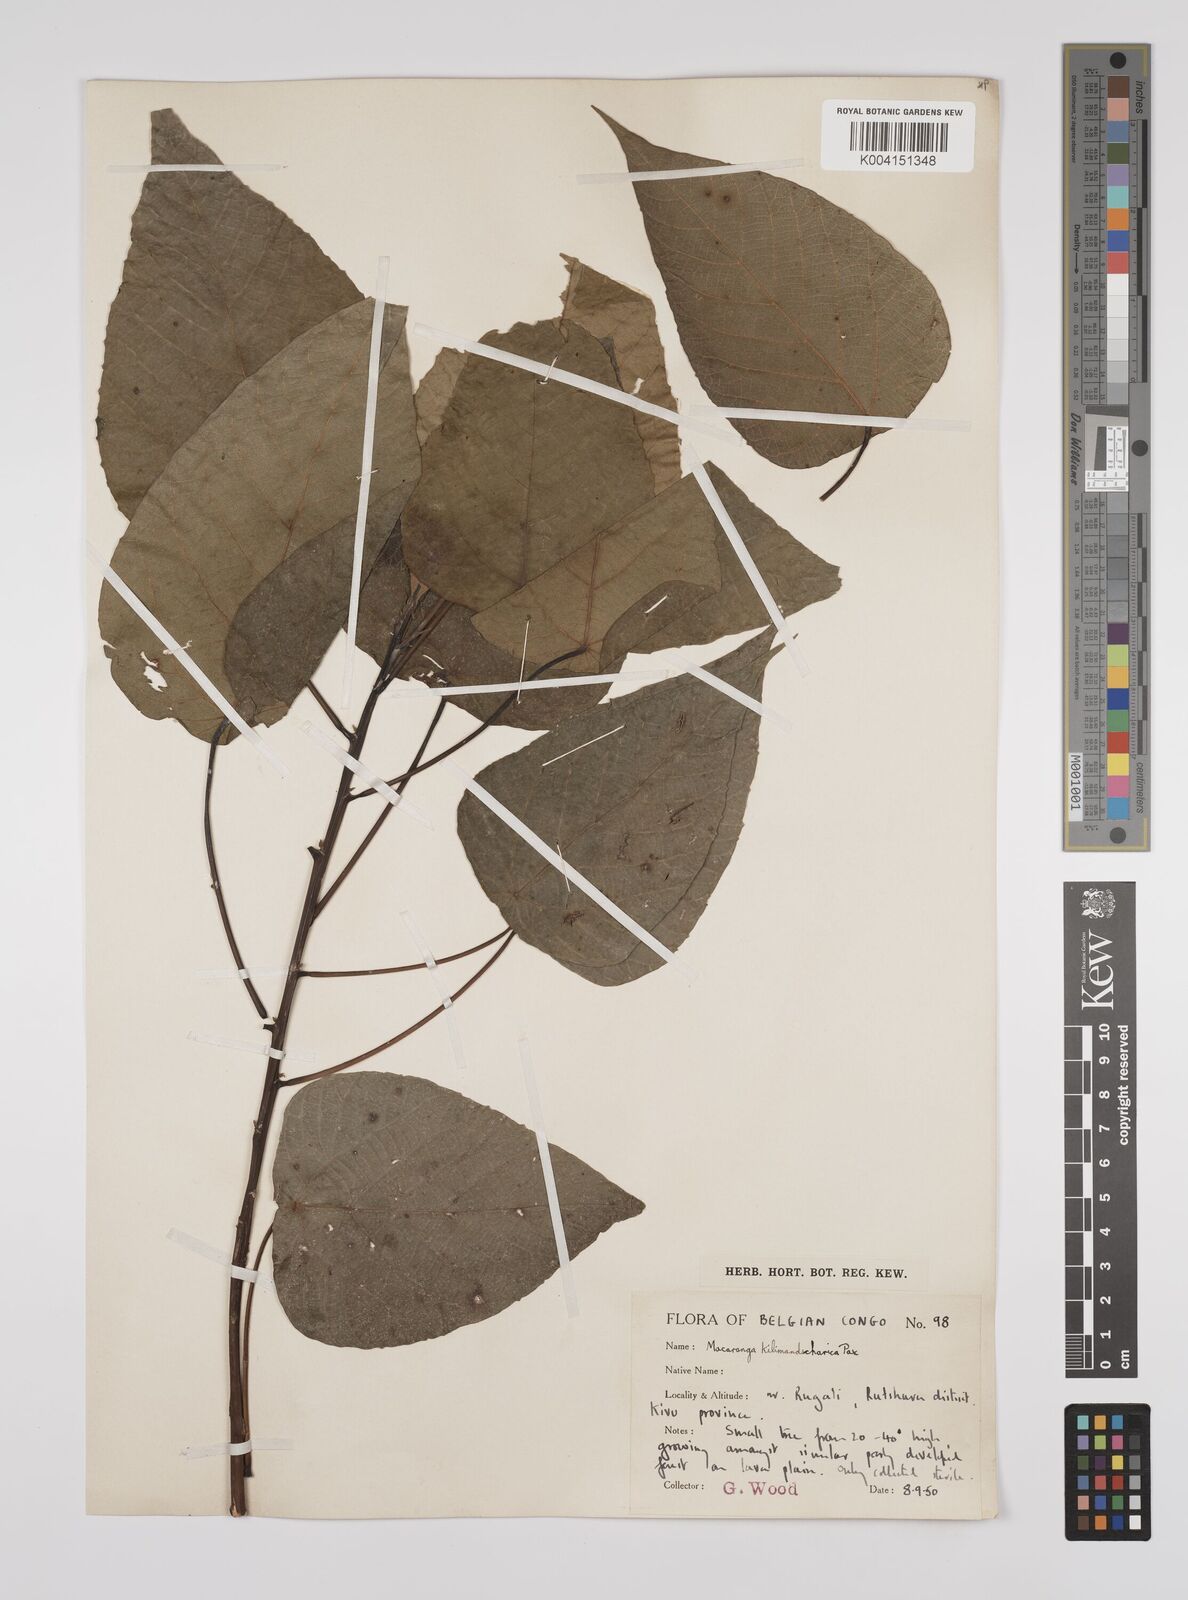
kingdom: Plantae
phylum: Tracheophyta
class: Magnoliopsida
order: Malpighiales
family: Euphorbiaceae
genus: Macaranga
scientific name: Macaranga kilimandscharica
